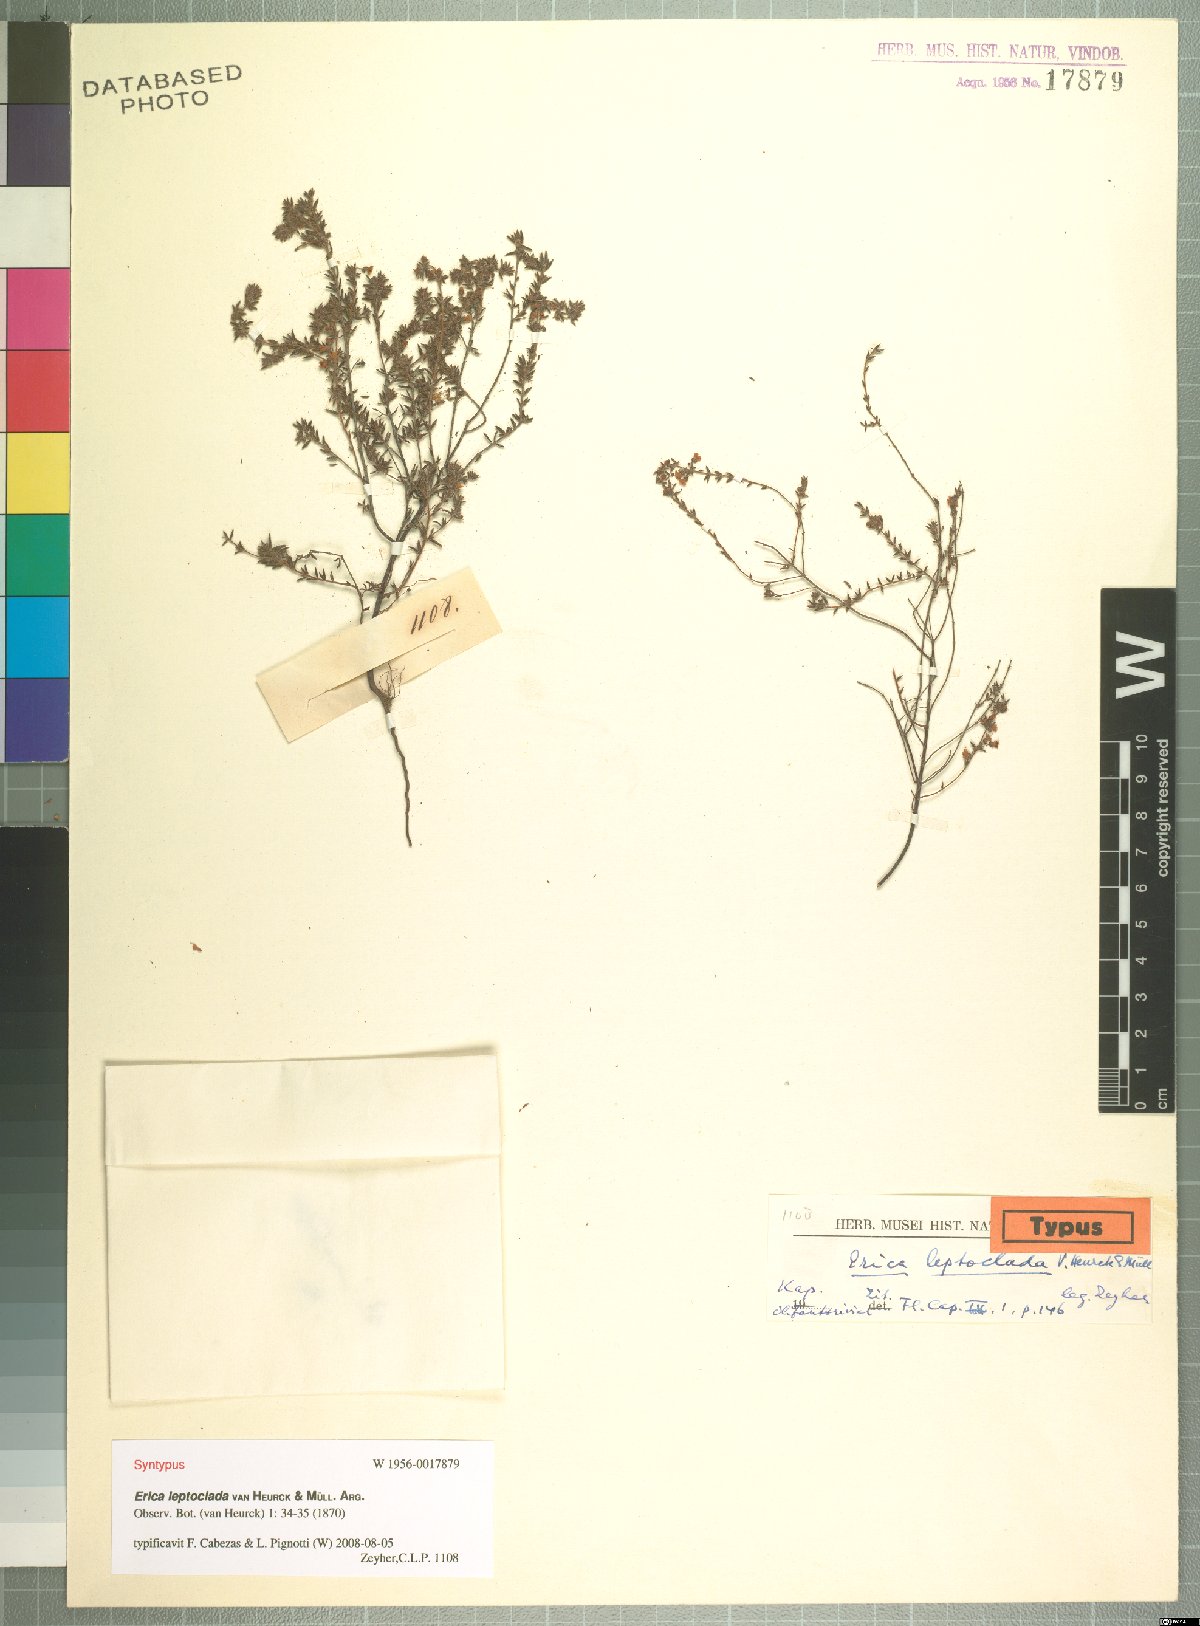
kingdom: Plantae
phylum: Tracheophyta
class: Magnoliopsida
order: Ericales
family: Ericaceae
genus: Erica
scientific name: Erica leptoclada
